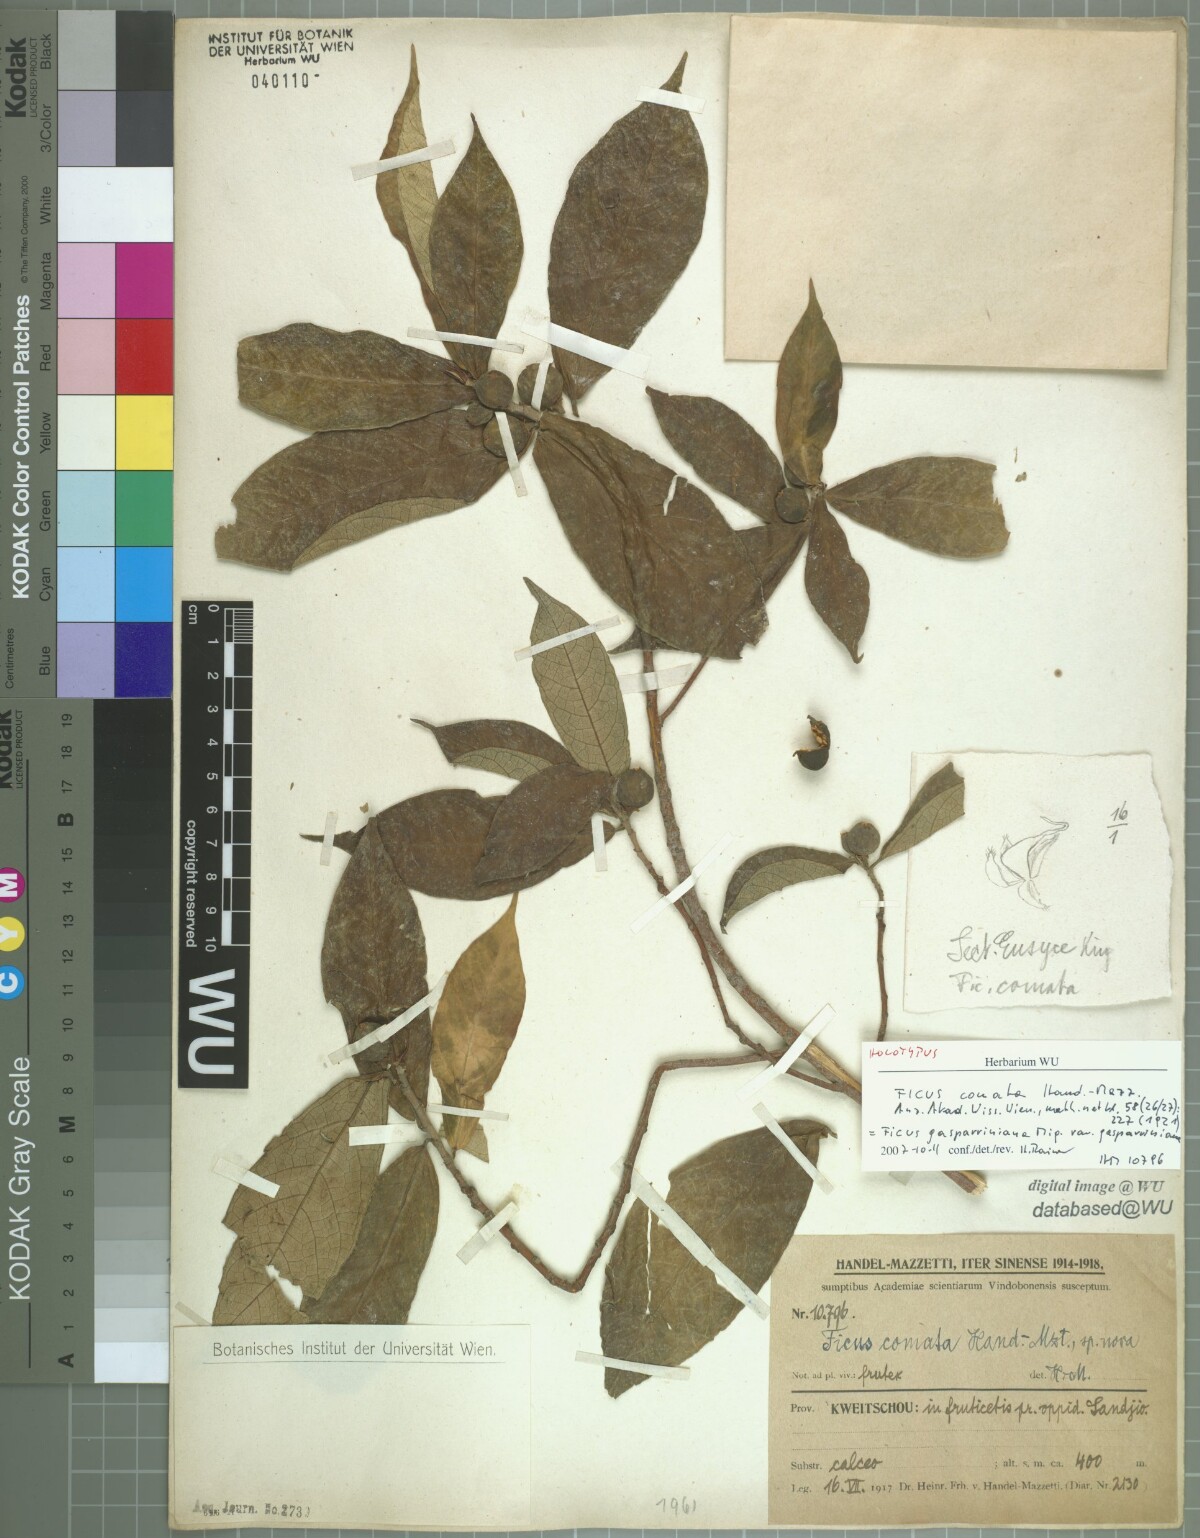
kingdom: Plantae
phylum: Tracheophyta
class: Magnoliopsida
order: Rosales
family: Moraceae
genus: Ficus
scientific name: Ficus glaberrima
